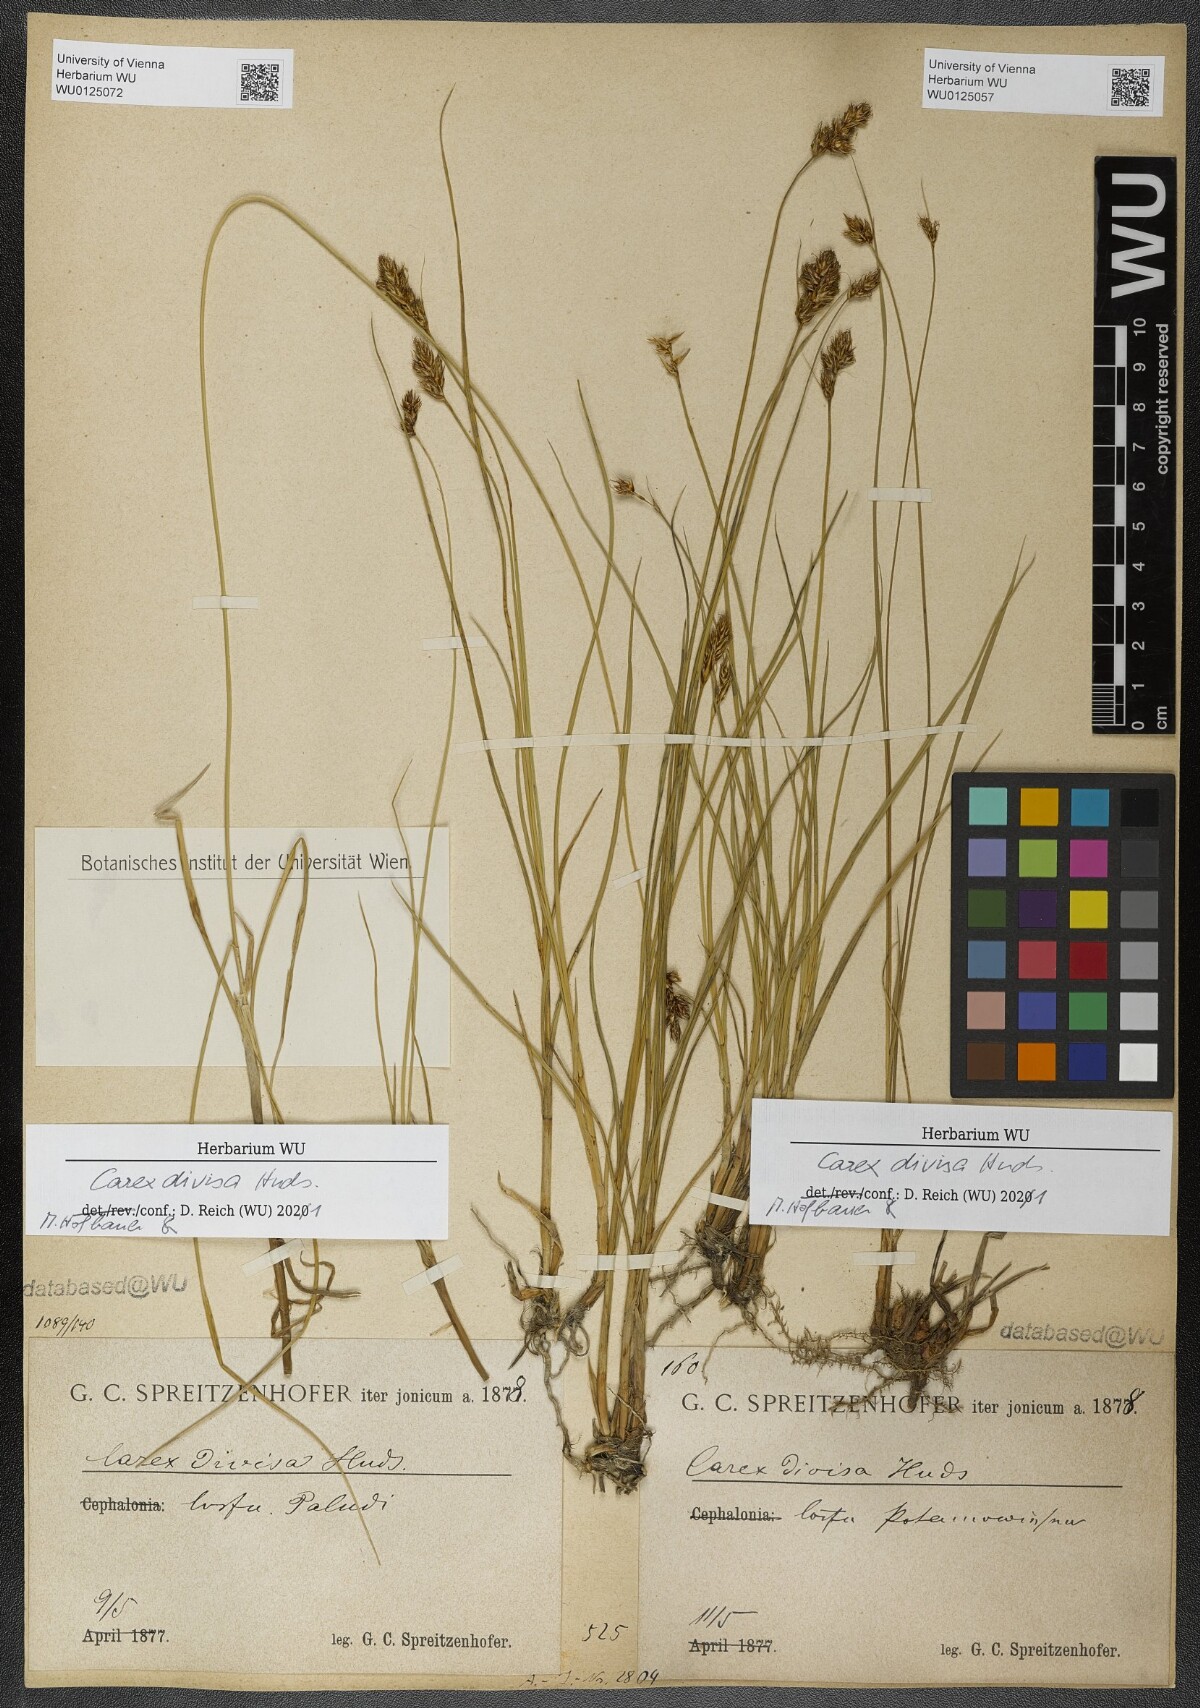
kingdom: Plantae
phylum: Tracheophyta
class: Liliopsida
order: Poales
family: Cyperaceae
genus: Carex
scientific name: Carex divisa
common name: Divided sedge
